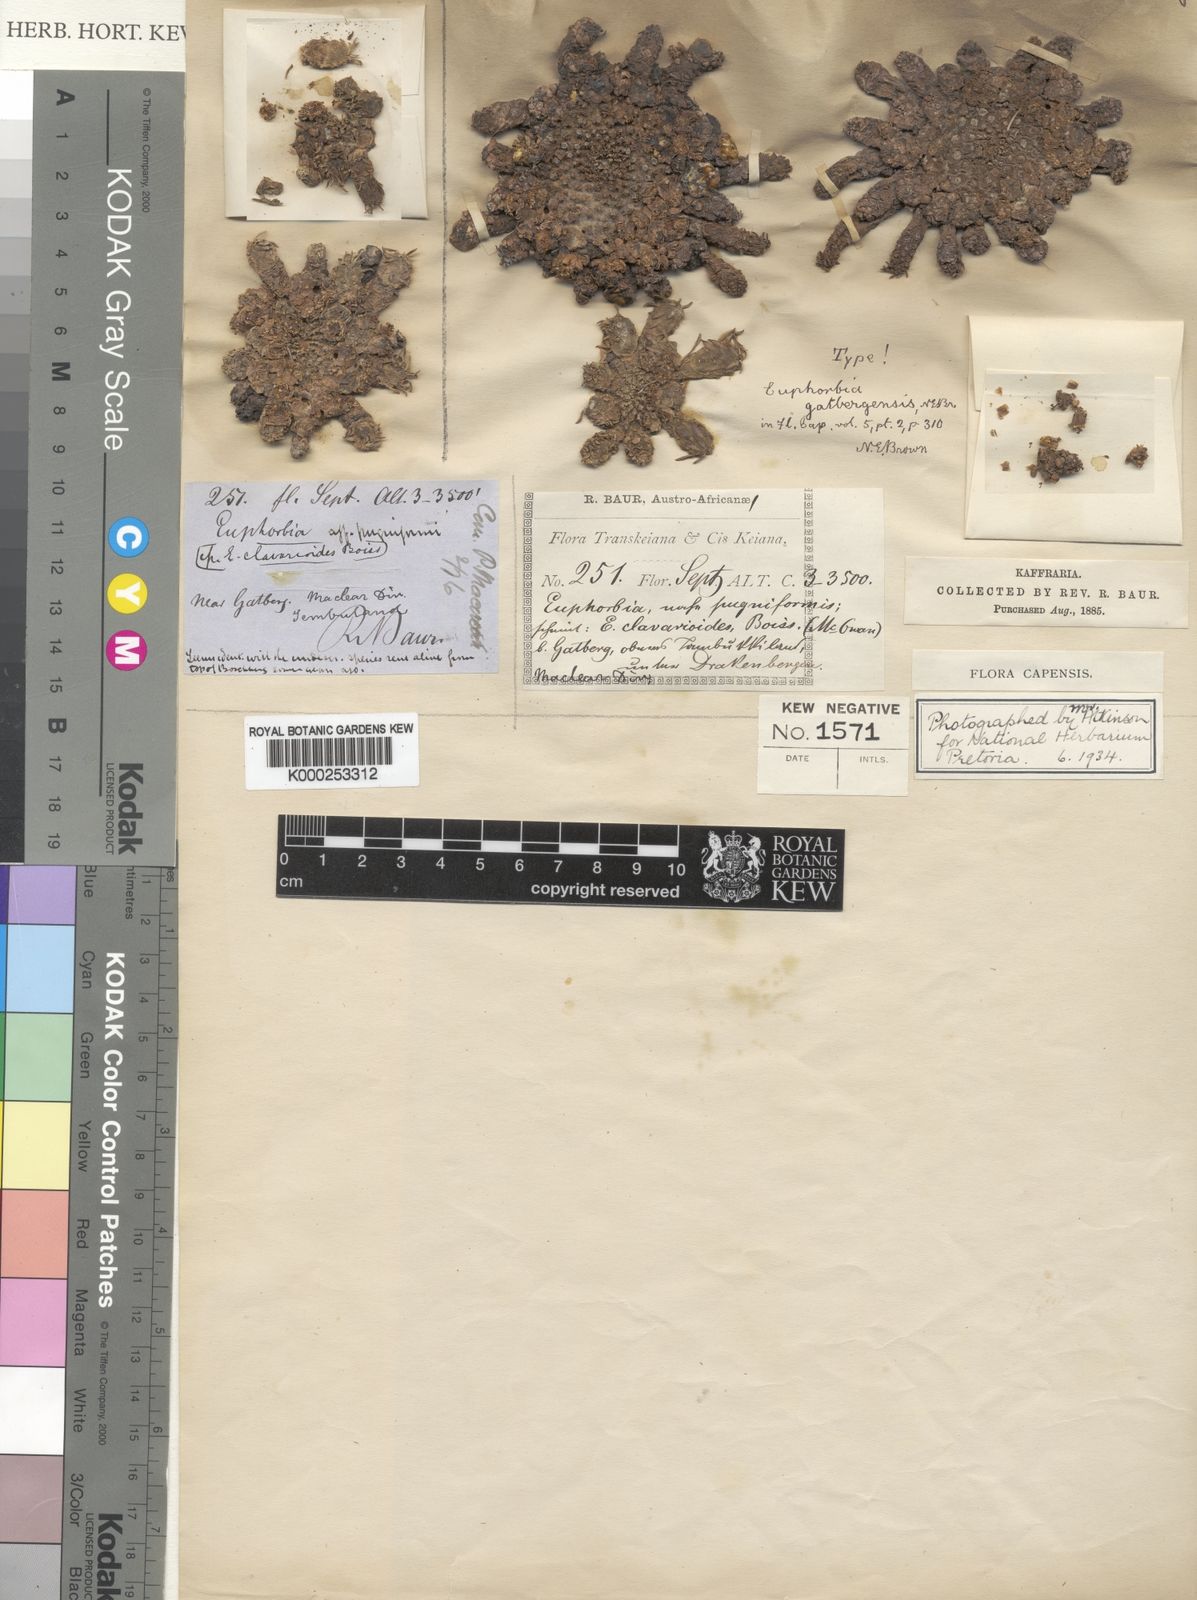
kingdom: Plantae
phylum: Tracheophyta
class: Magnoliopsida
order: Malpighiales
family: Euphorbiaceae
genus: Euphorbia
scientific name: Euphorbia flanaganii
